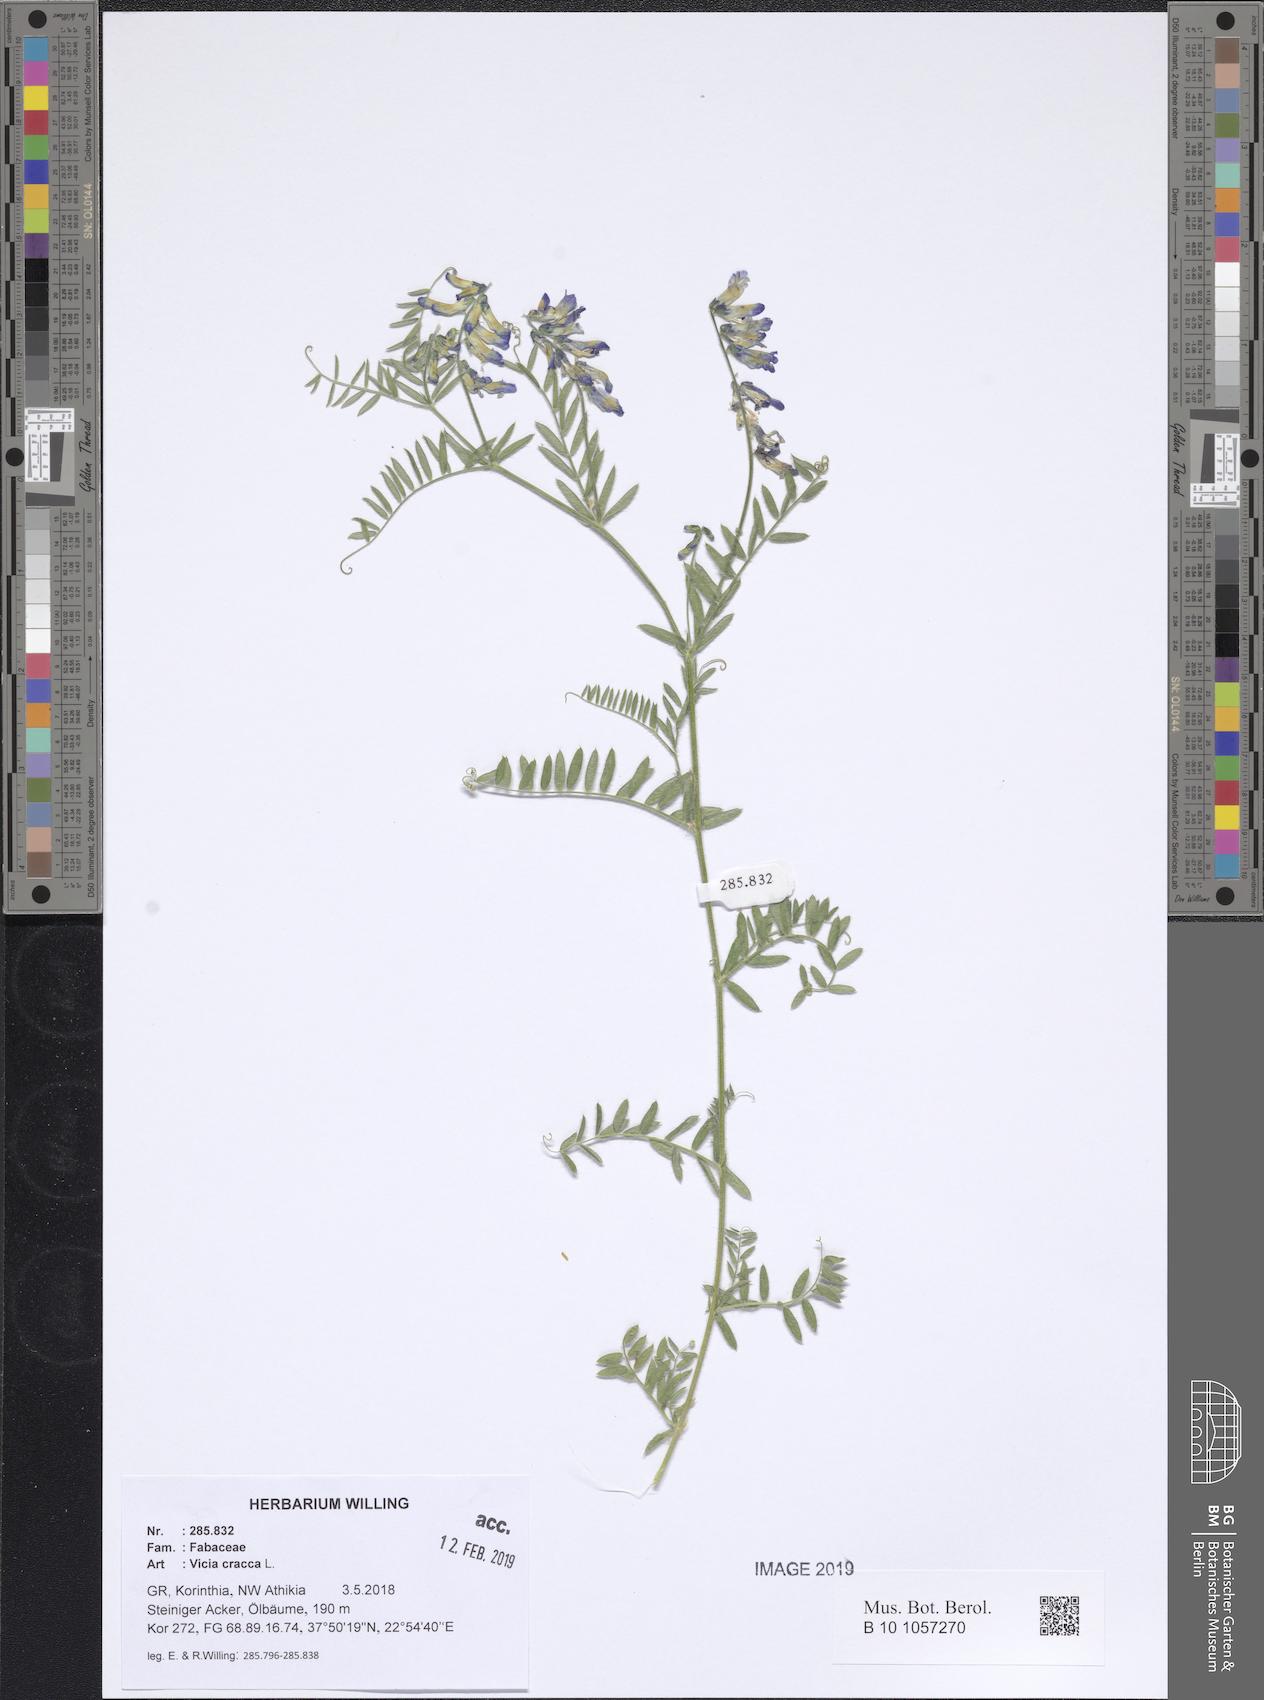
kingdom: Plantae
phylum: Tracheophyta
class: Magnoliopsida
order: Fabales
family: Fabaceae
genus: Vicia
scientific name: Vicia cracca
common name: Bird vetch
